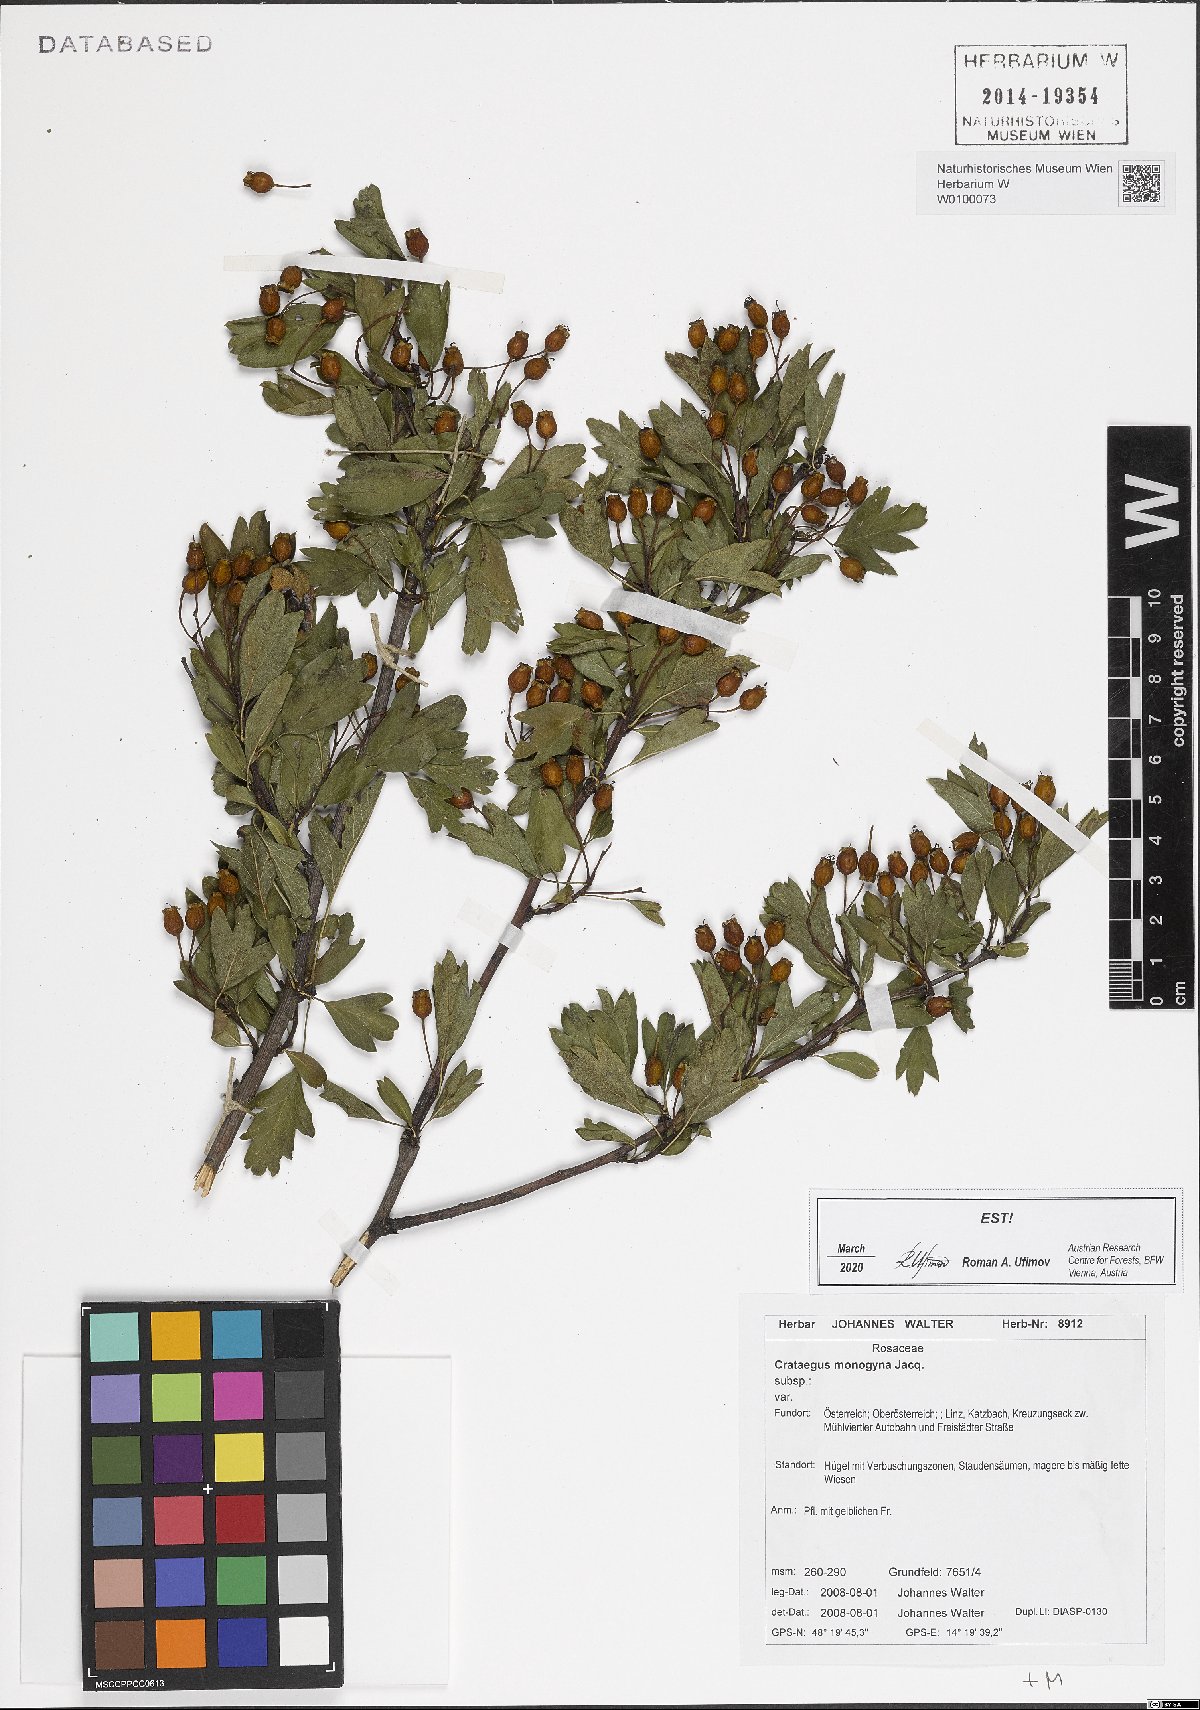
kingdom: Plantae
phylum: Tracheophyta
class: Magnoliopsida
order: Rosales
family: Rosaceae
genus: Crataegus
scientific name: Crataegus monogyna
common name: Hawthorn
